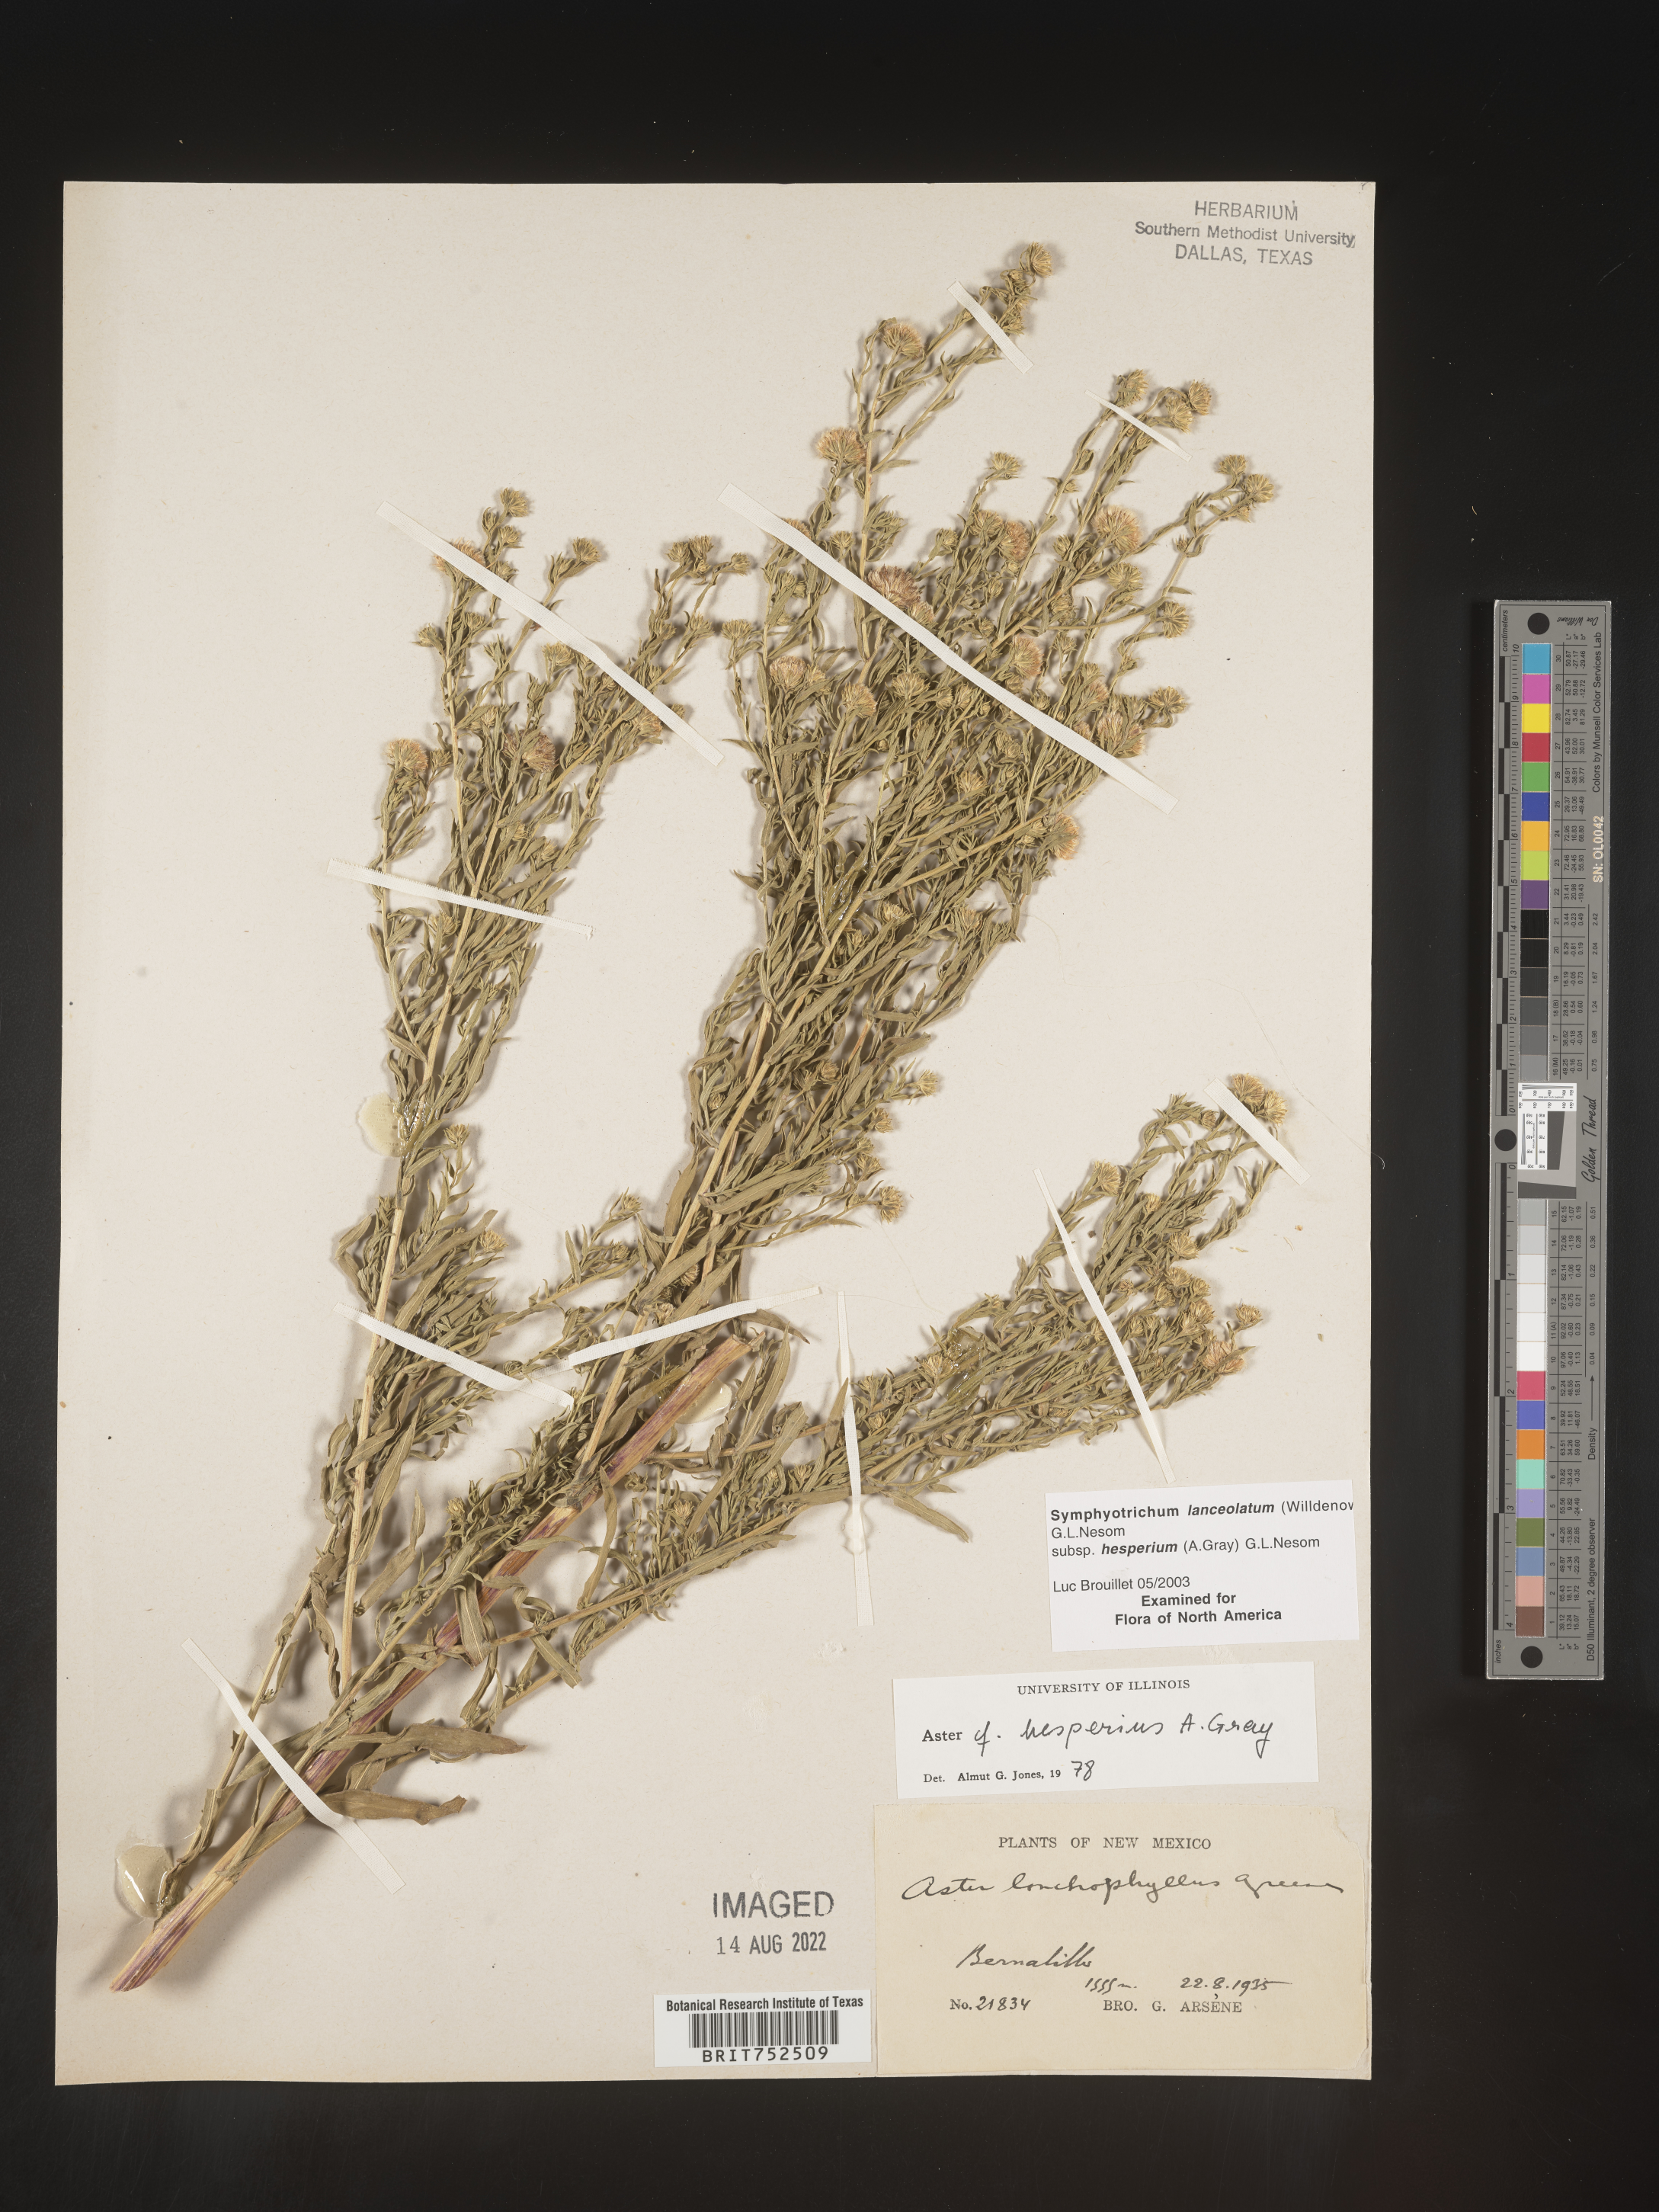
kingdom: Plantae
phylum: Tracheophyta
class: Magnoliopsida
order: Asterales
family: Asteraceae
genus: Symphyotrichum
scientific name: Symphyotrichum lanceolatum
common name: Panicled aster
